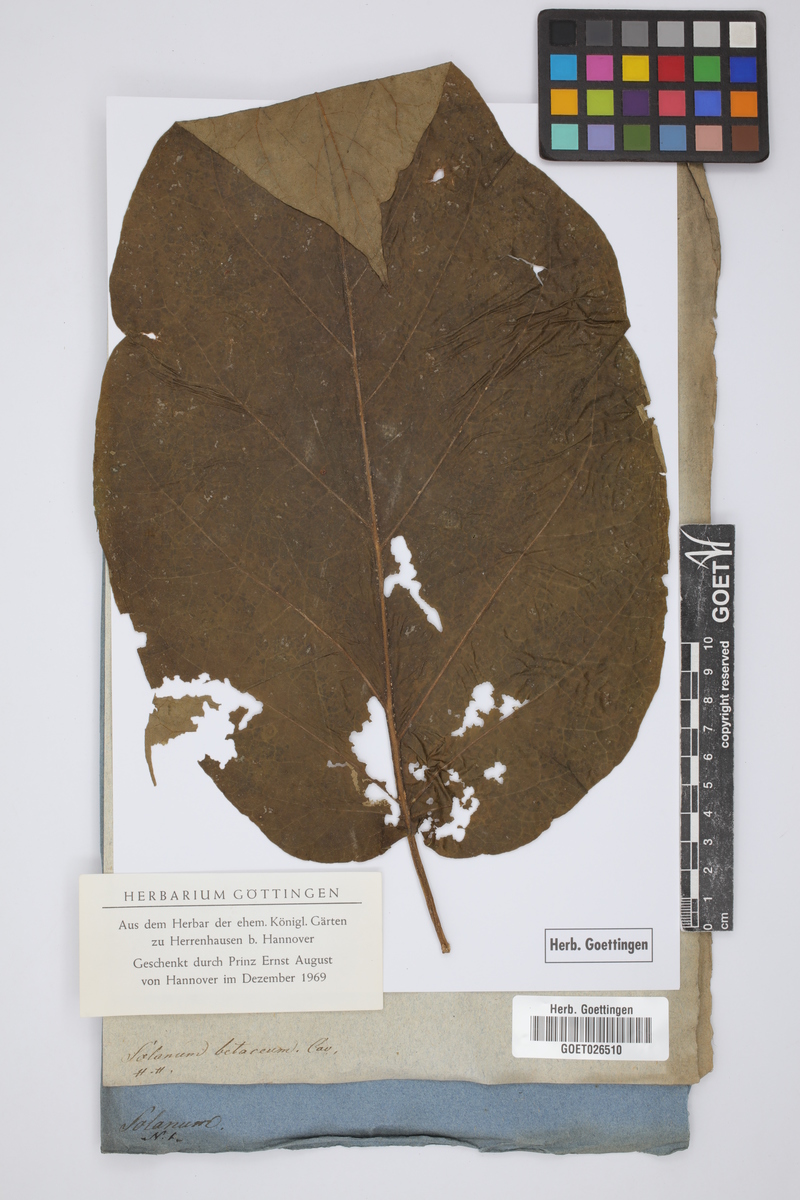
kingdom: Plantae
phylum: Tracheophyta
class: Magnoliopsida
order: Solanales
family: Solanaceae
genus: Solanum
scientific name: Solanum betaceum
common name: Tamarillo
